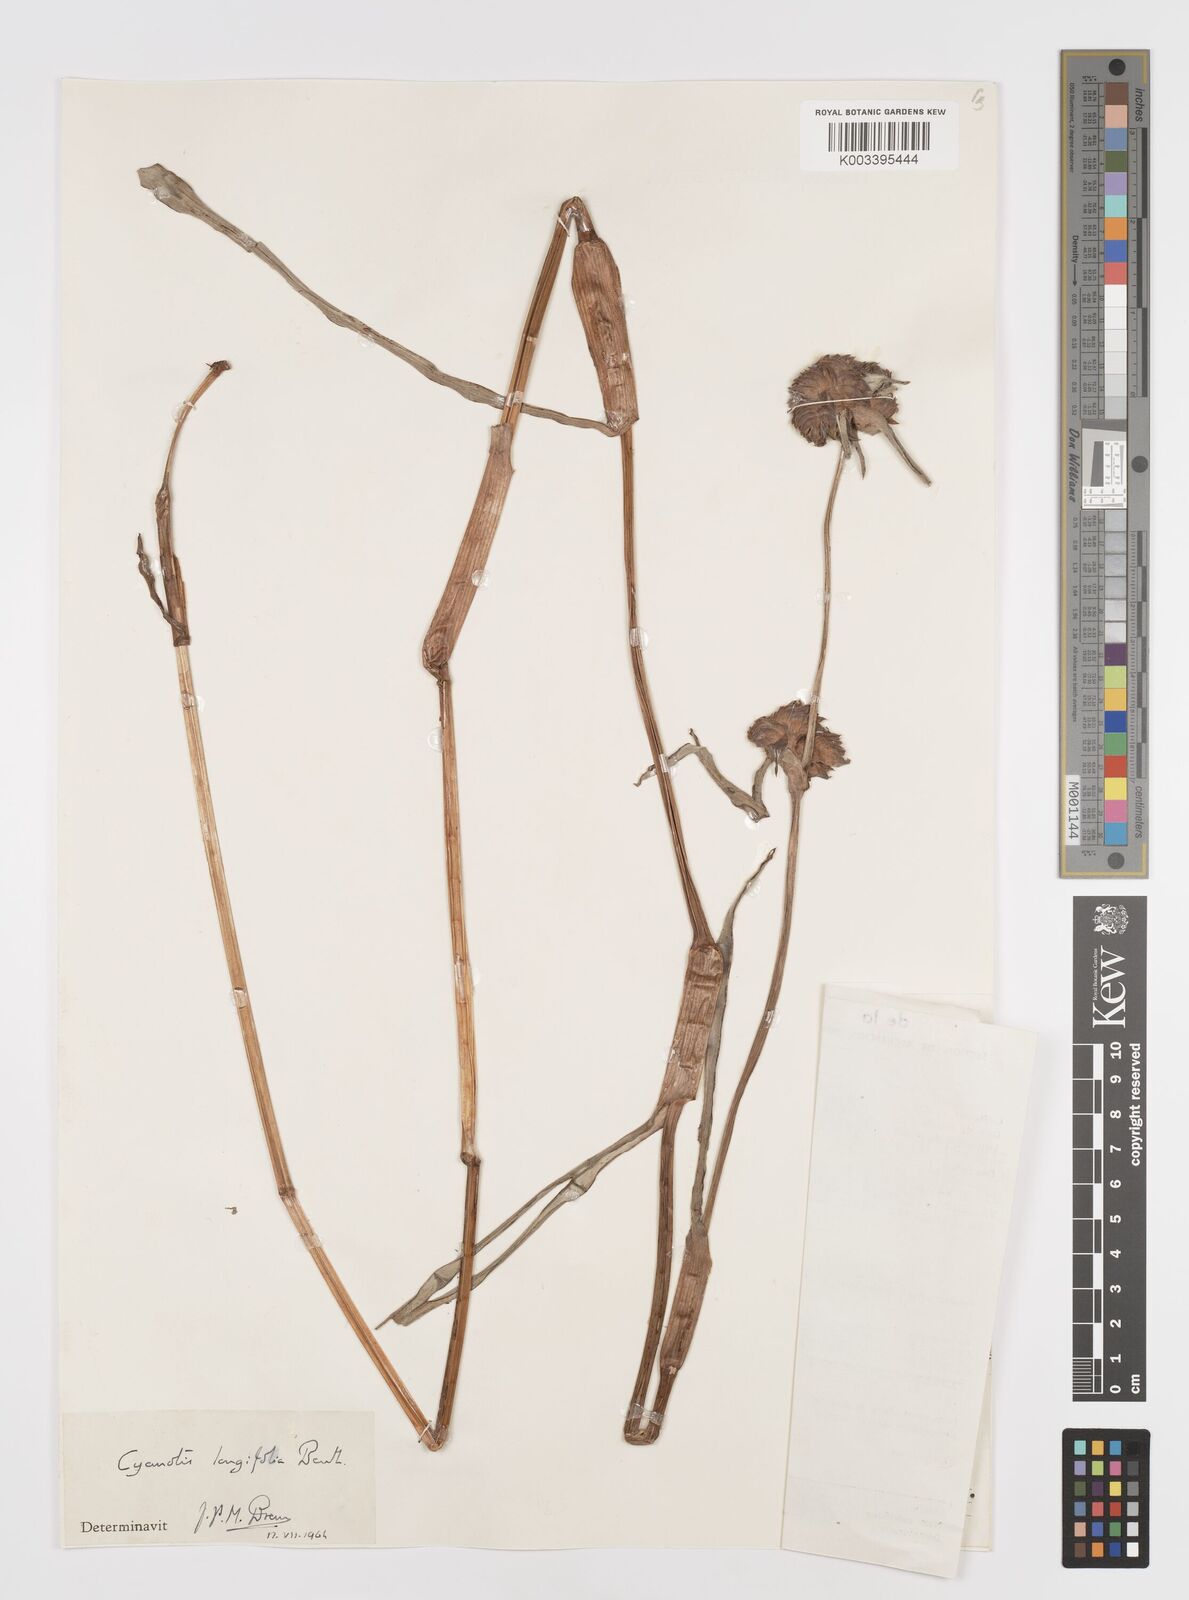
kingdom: Plantae
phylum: Tracheophyta
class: Liliopsida
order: Commelinales
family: Commelinaceae
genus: Cyanotis
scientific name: Cyanotis longifolia
